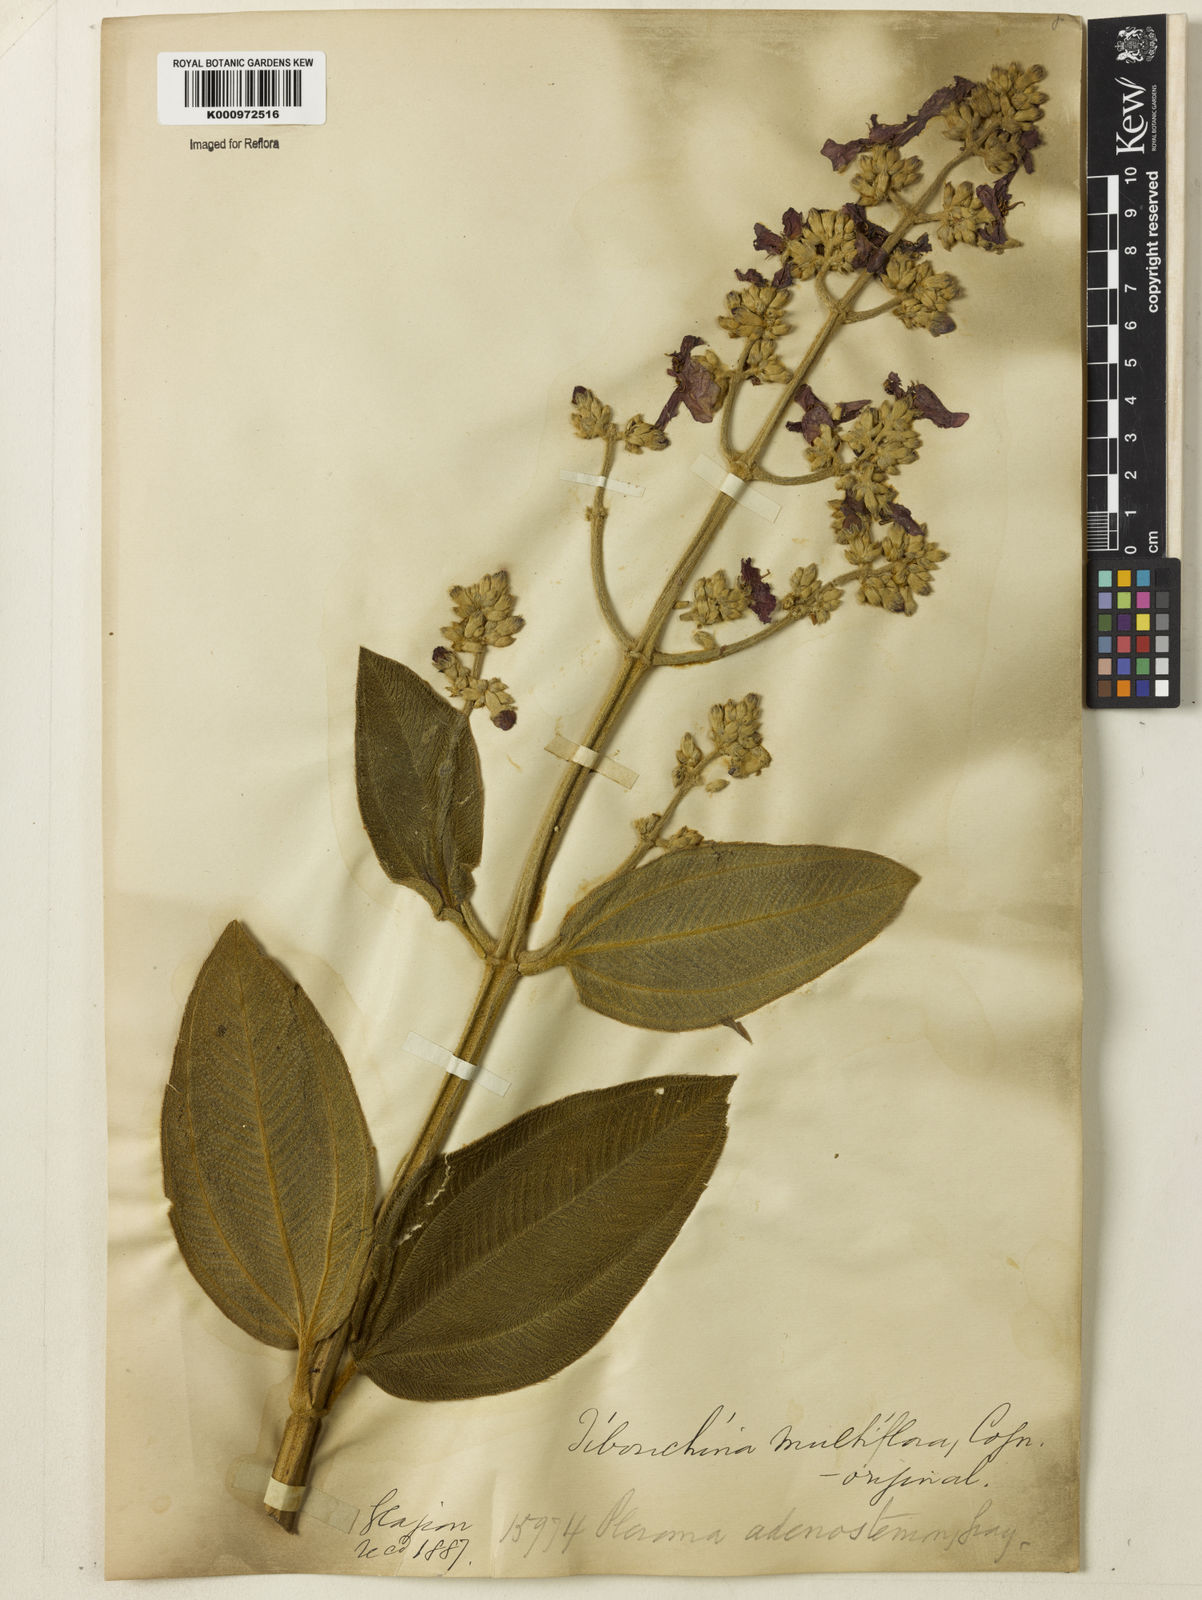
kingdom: Plantae
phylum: Tracheophyta
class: Magnoliopsida
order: Myrtales
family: Melastomataceae
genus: Pleroma
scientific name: Pleroma heteromallum
